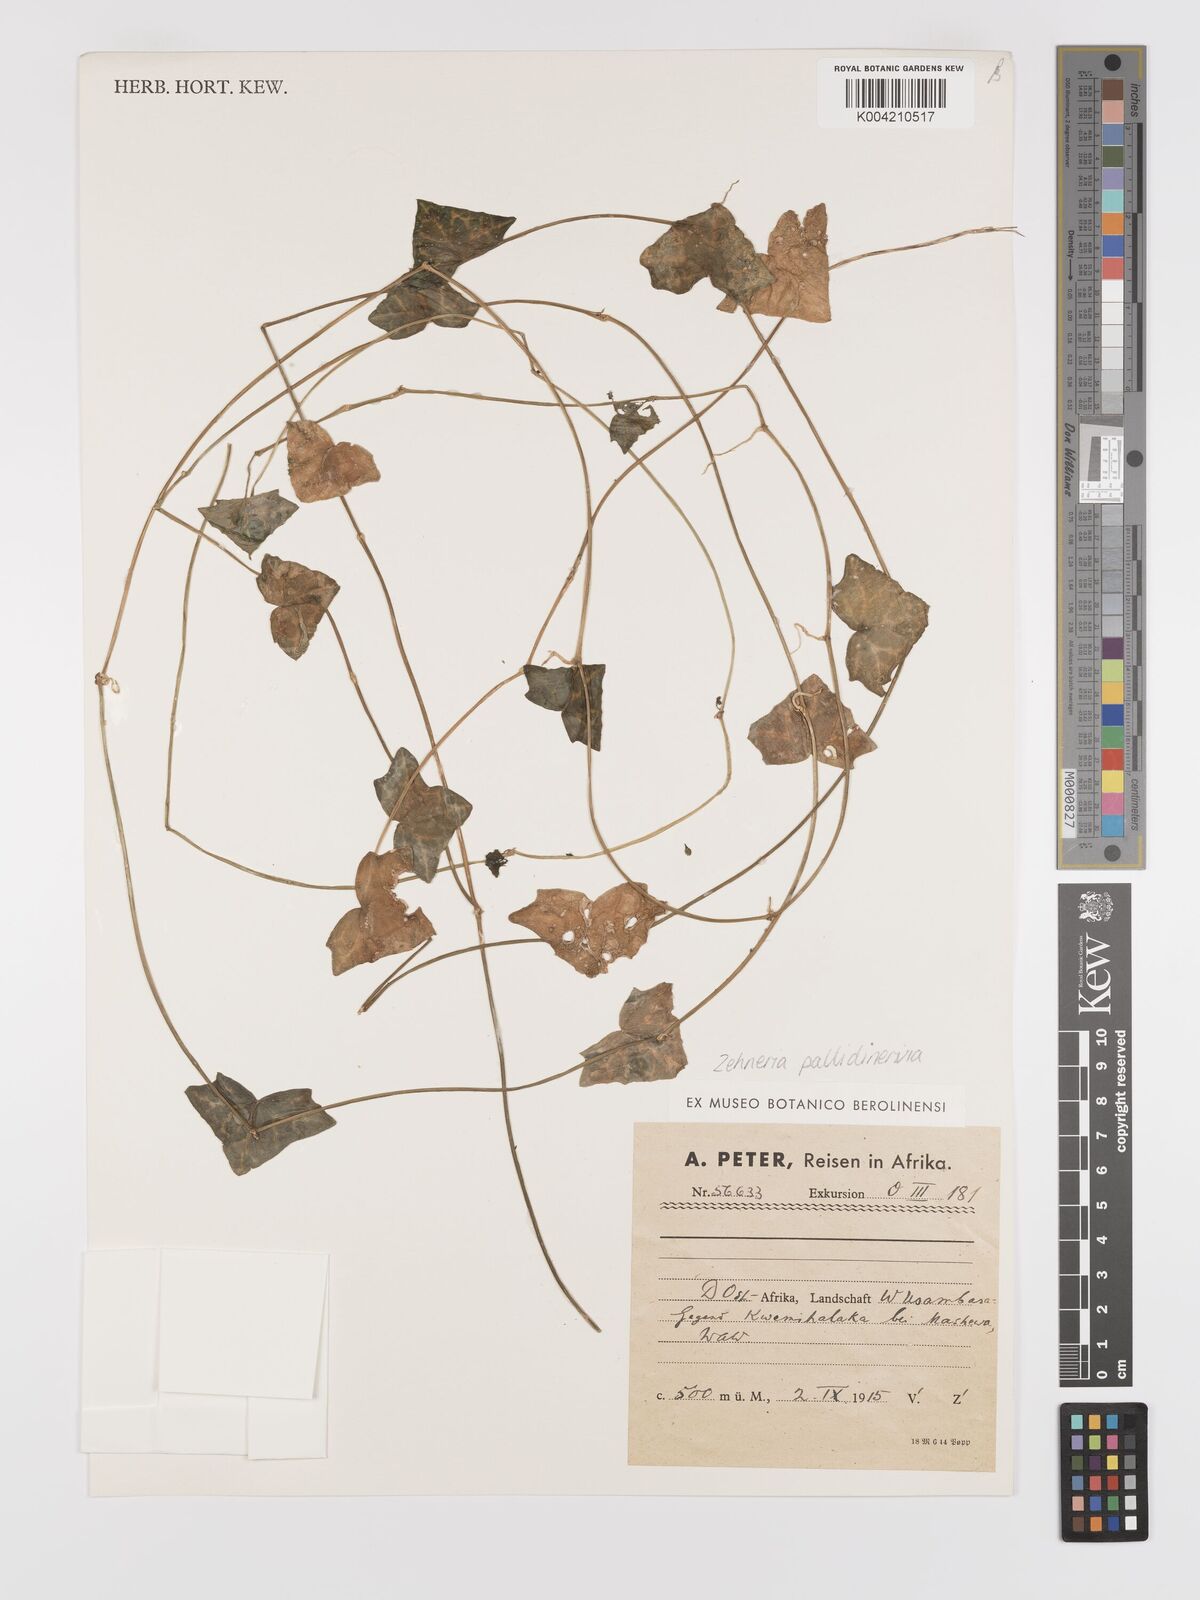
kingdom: Plantae
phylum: Tracheophyta
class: Magnoliopsida
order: Cucurbitales
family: Cucurbitaceae
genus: Zehneria
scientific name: Zehneria pallidinervia
